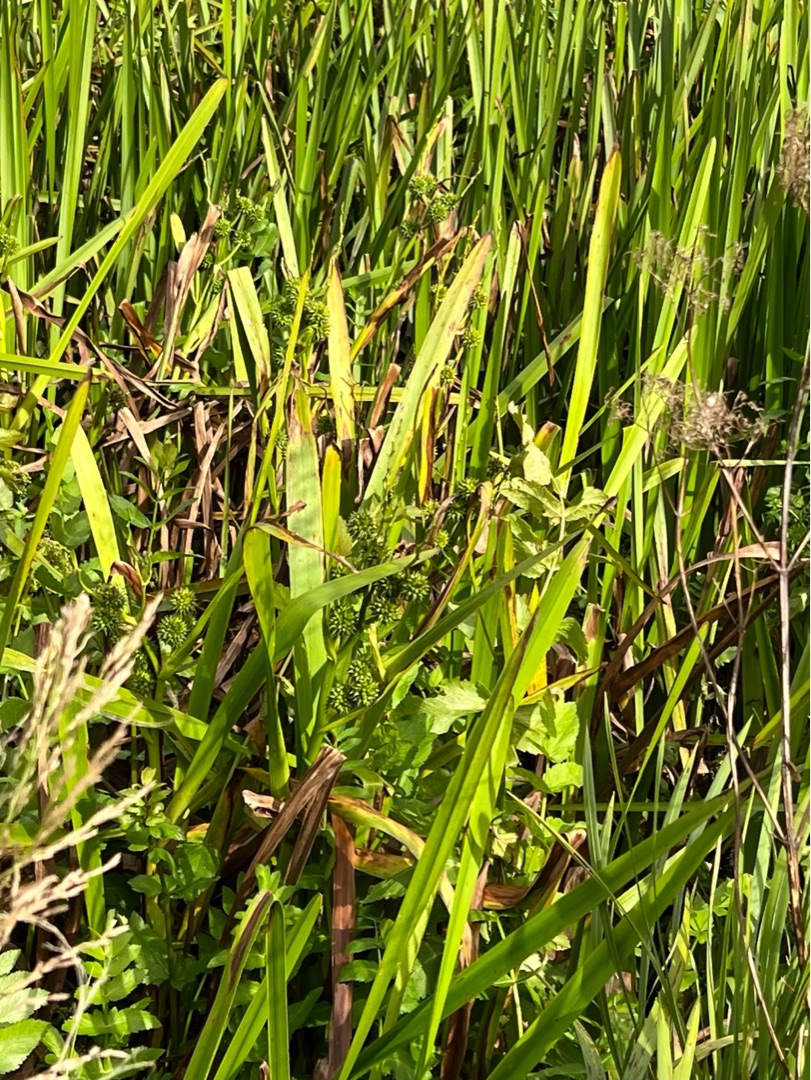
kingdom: Plantae
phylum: Tracheophyta
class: Liliopsida
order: Poales
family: Typhaceae
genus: Sparganium
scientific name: Sparganium erectum
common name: Grenet pindsvineknop
